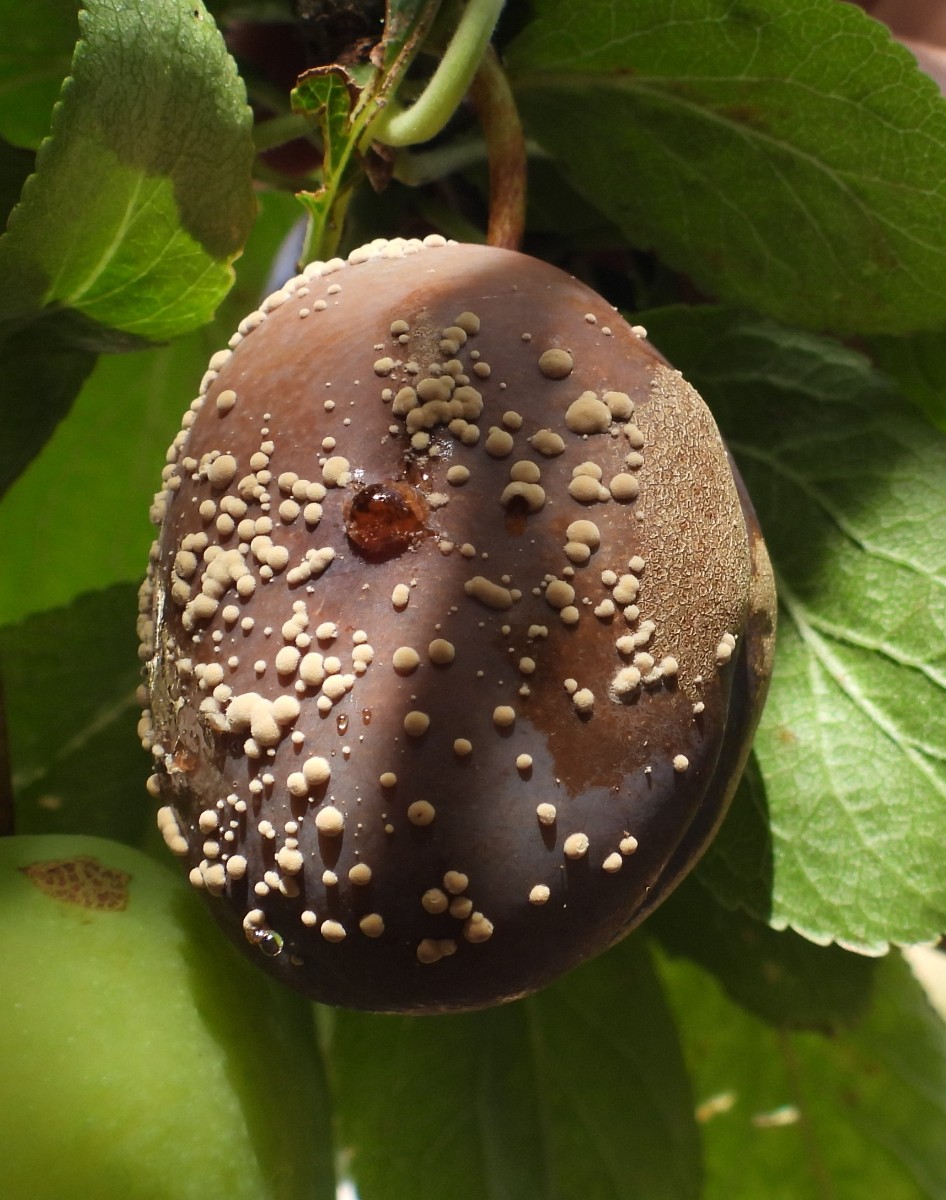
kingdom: Fungi
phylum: Ascomycota
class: Leotiomycetes
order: Helotiales
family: Sclerotiniaceae
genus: Monilinia
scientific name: Monilinia laxa
